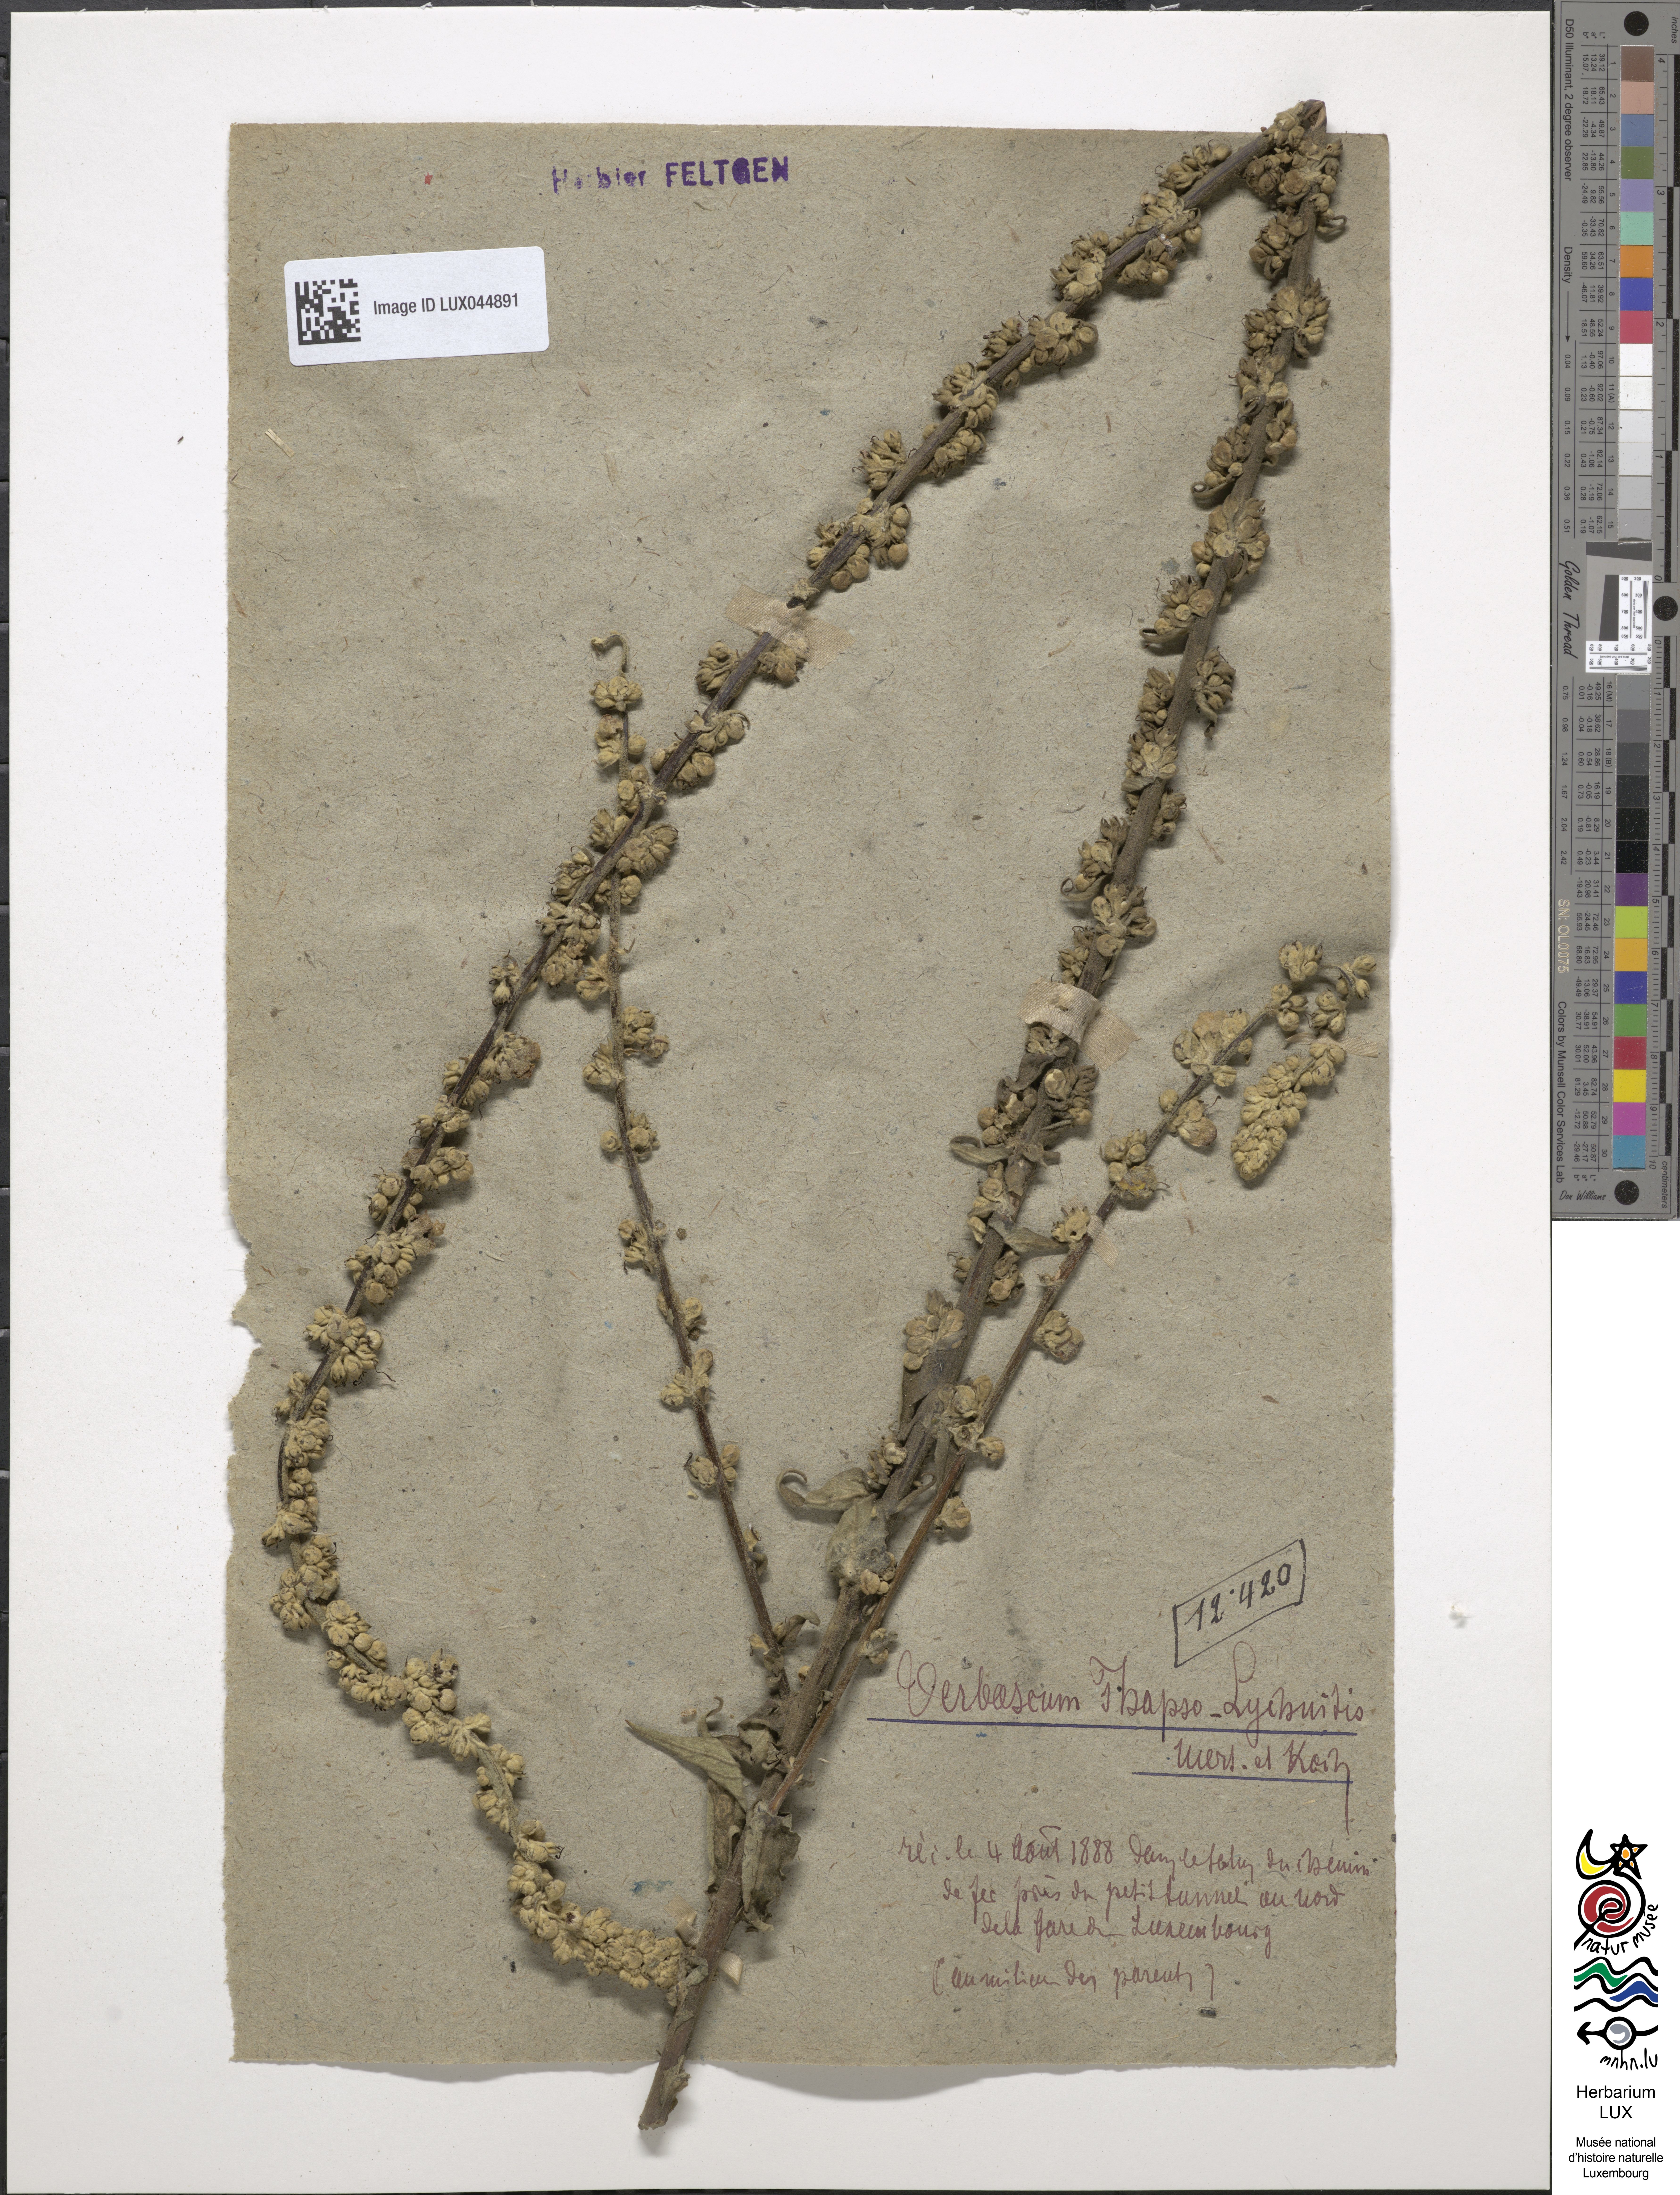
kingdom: Plantae
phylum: Tracheophyta
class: Magnoliopsida
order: Lamiales
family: Scrophulariaceae
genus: Verbascum
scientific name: Verbascum
